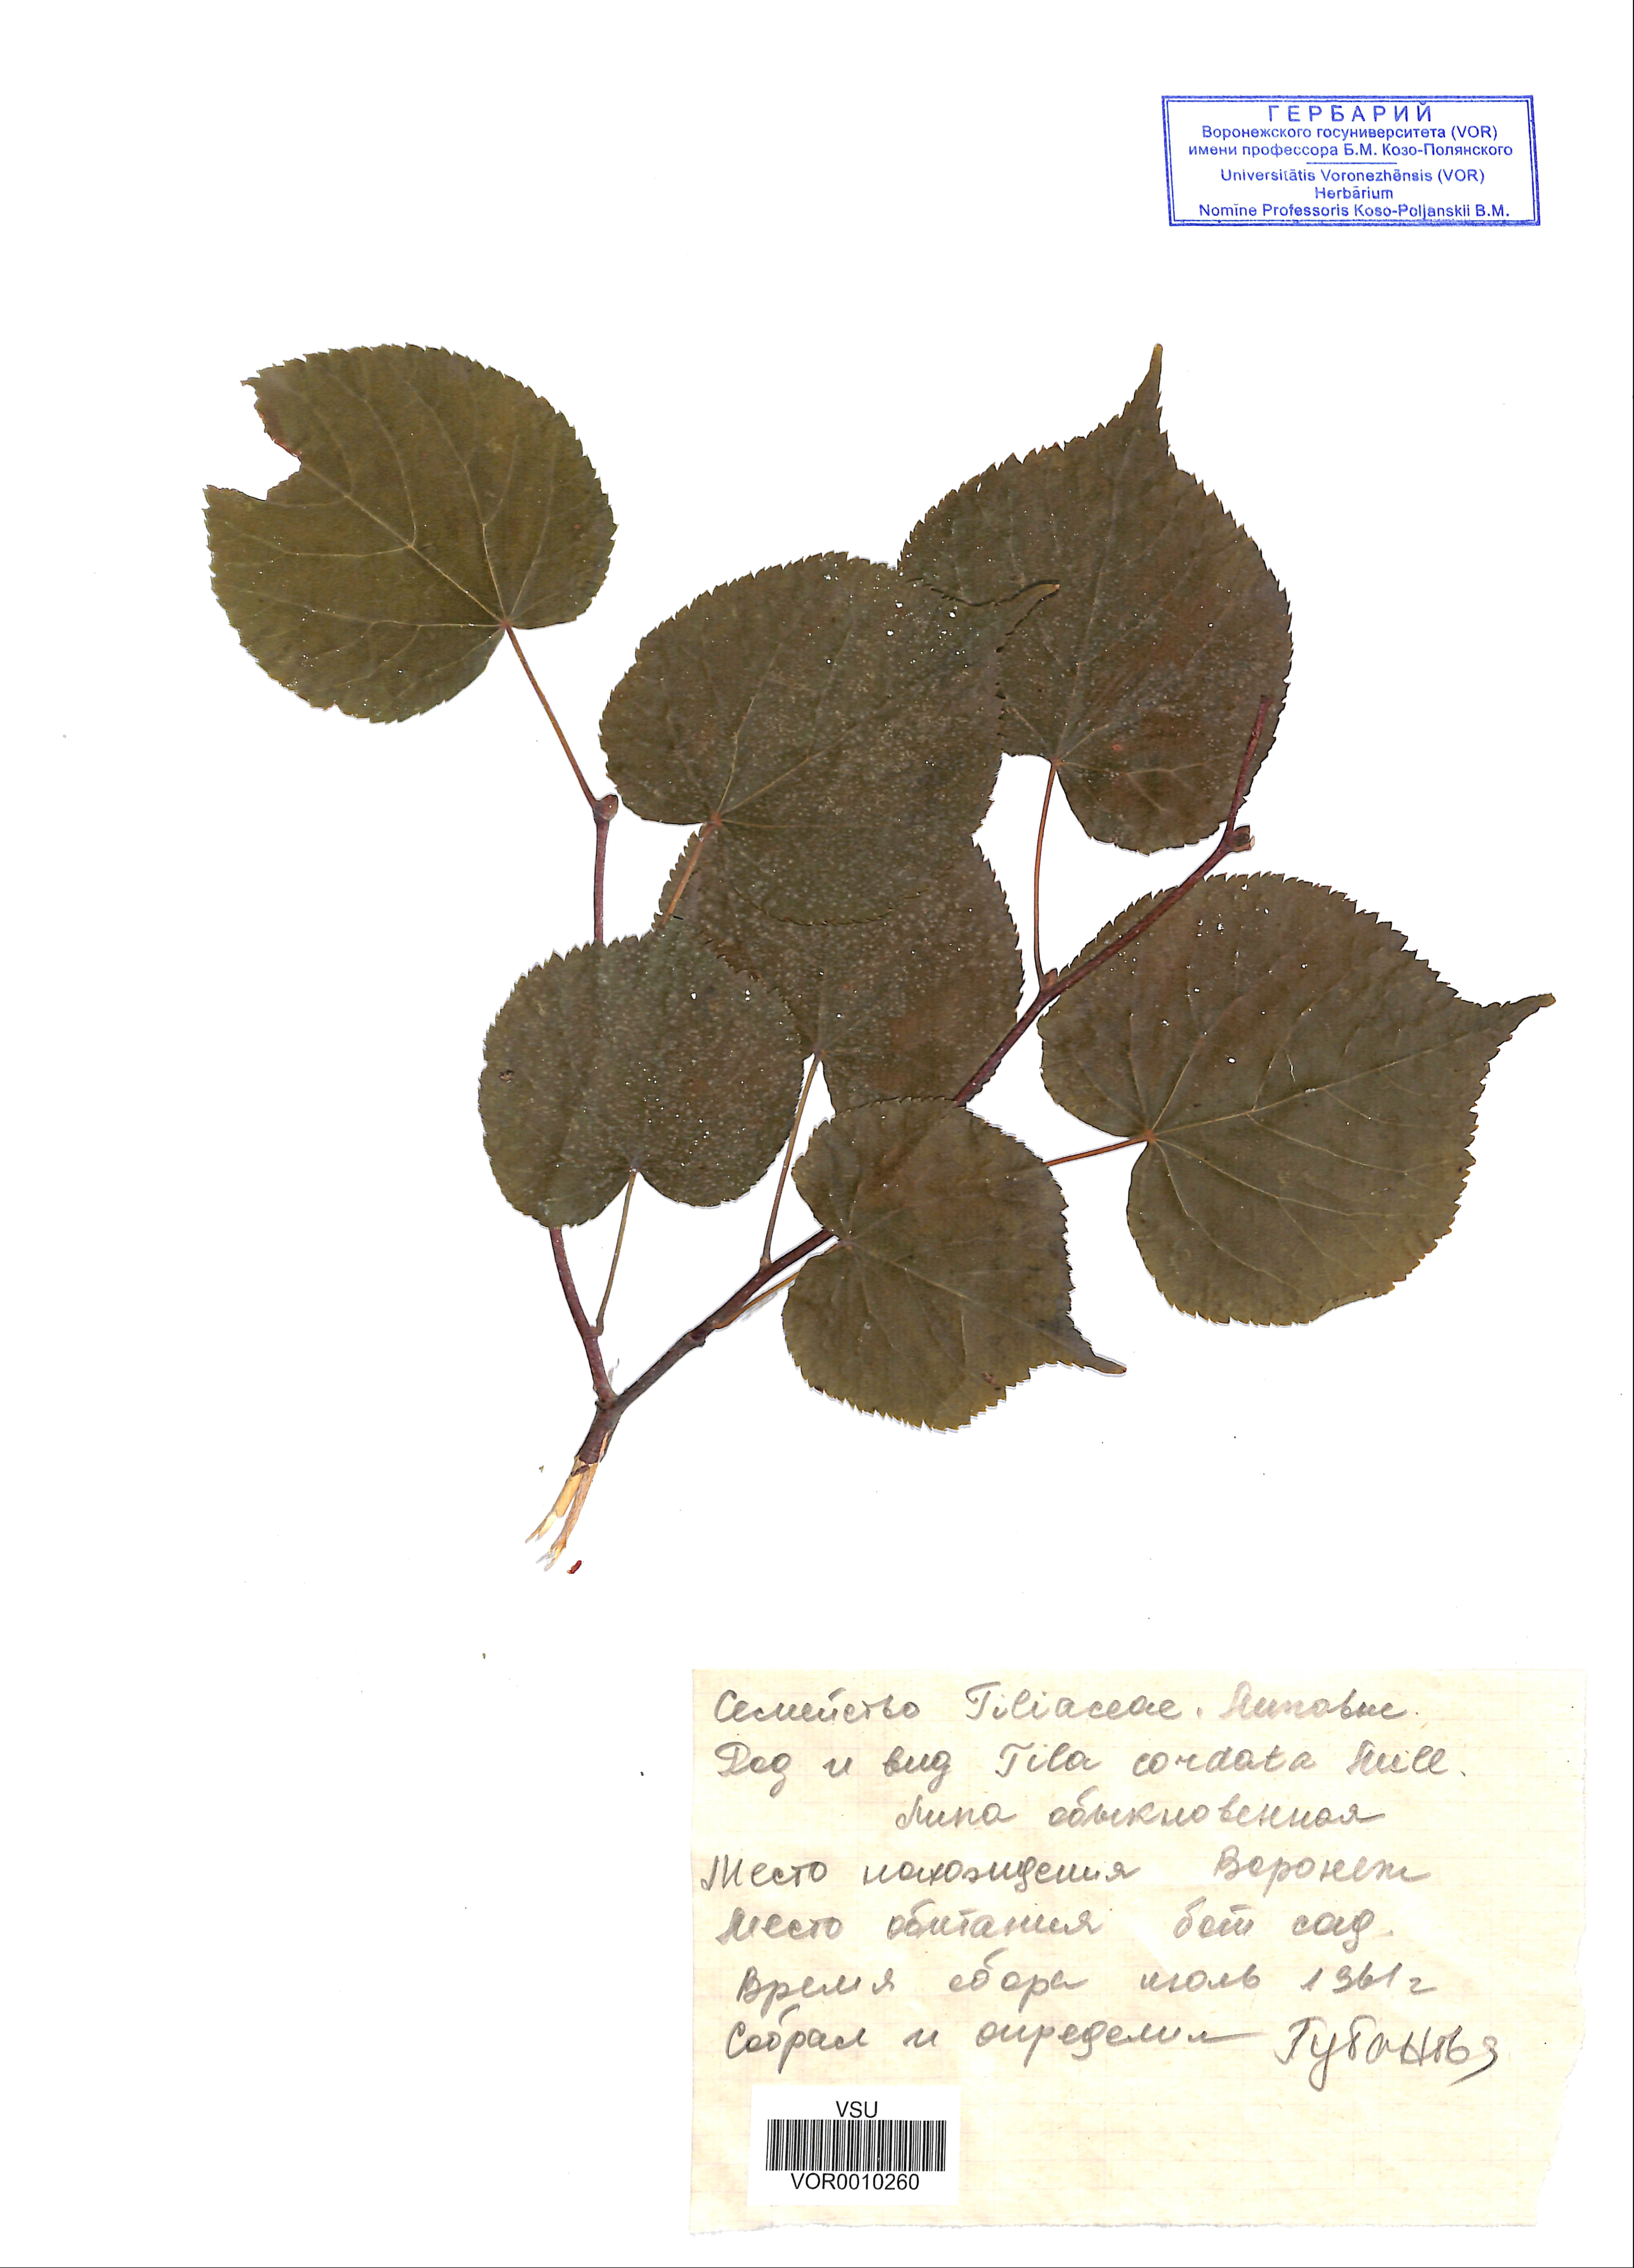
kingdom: Plantae
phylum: Tracheophyta
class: Magnoliopsida
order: Malvales
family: Malvaceae
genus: Tilia
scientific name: Tilia cordata
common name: Small-leaved lime
